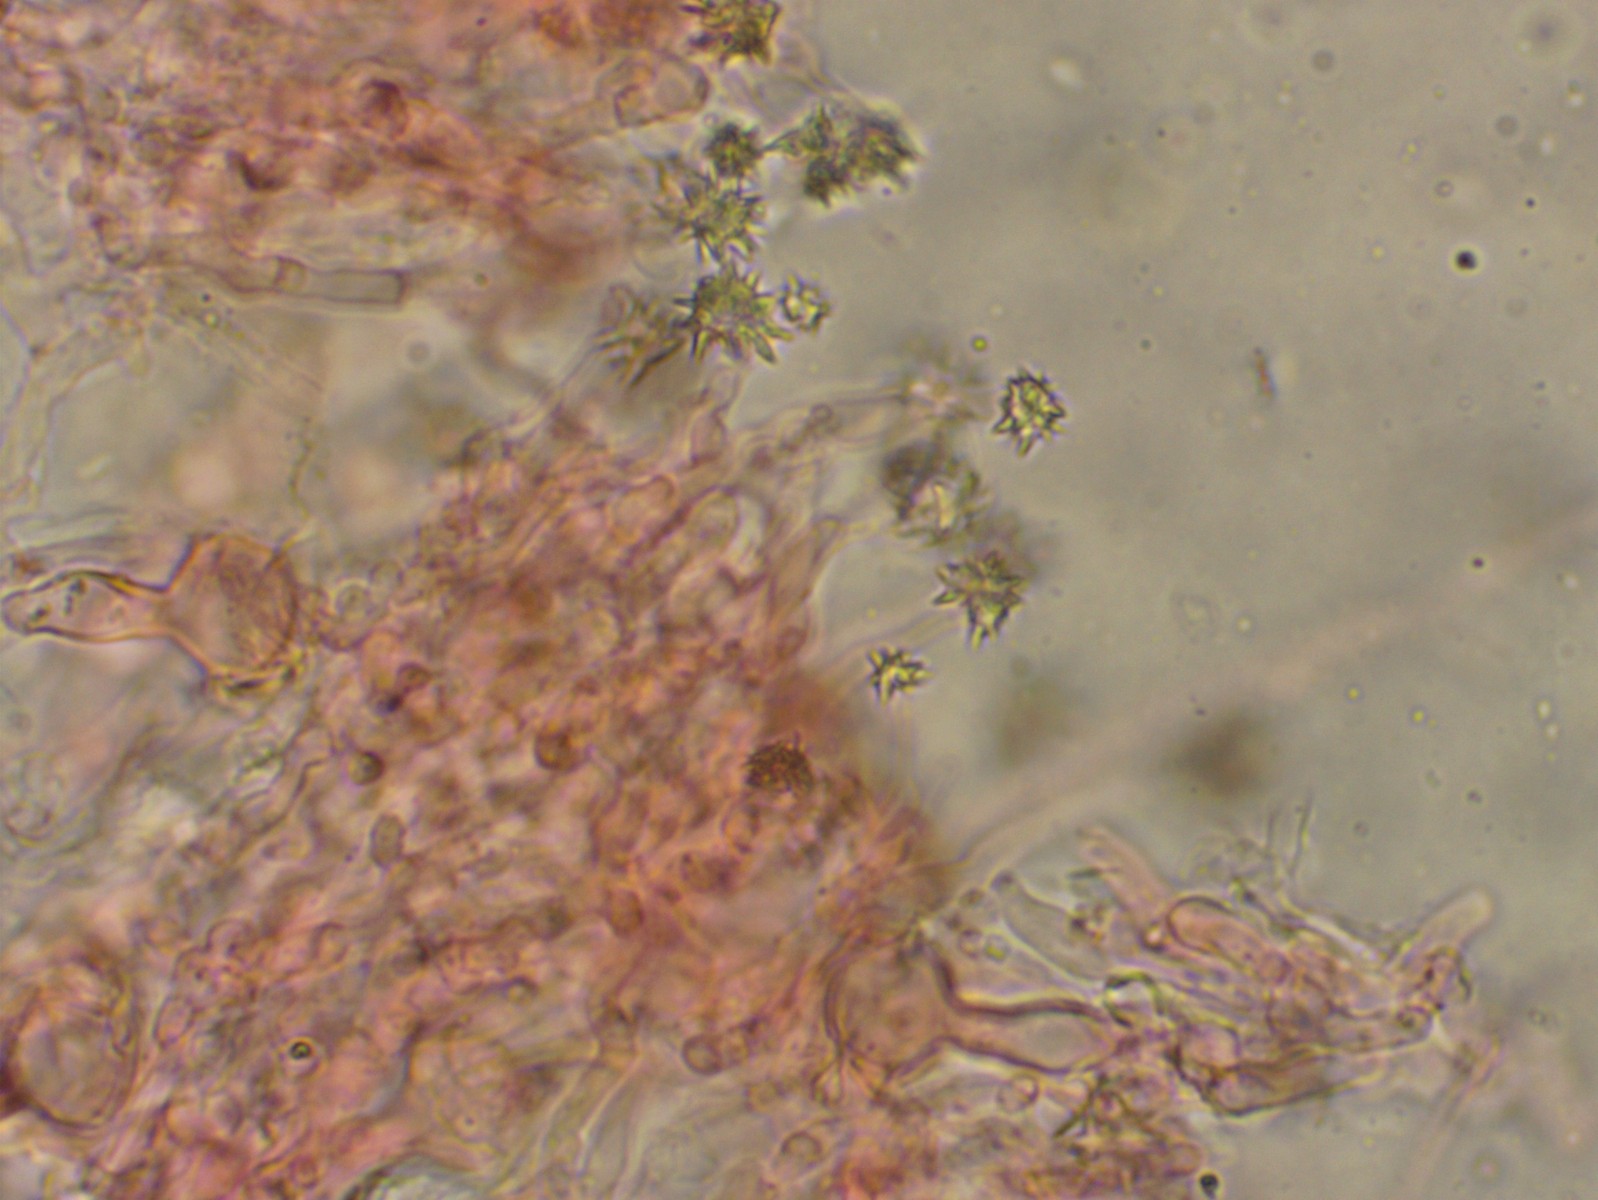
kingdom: Fungi
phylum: Basidiomycota
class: Agaricomycetes
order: Hymenochaetales
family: Rickenellaceae
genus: Resinicium
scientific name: Resinicium bicolor
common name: almindelig vokstand
